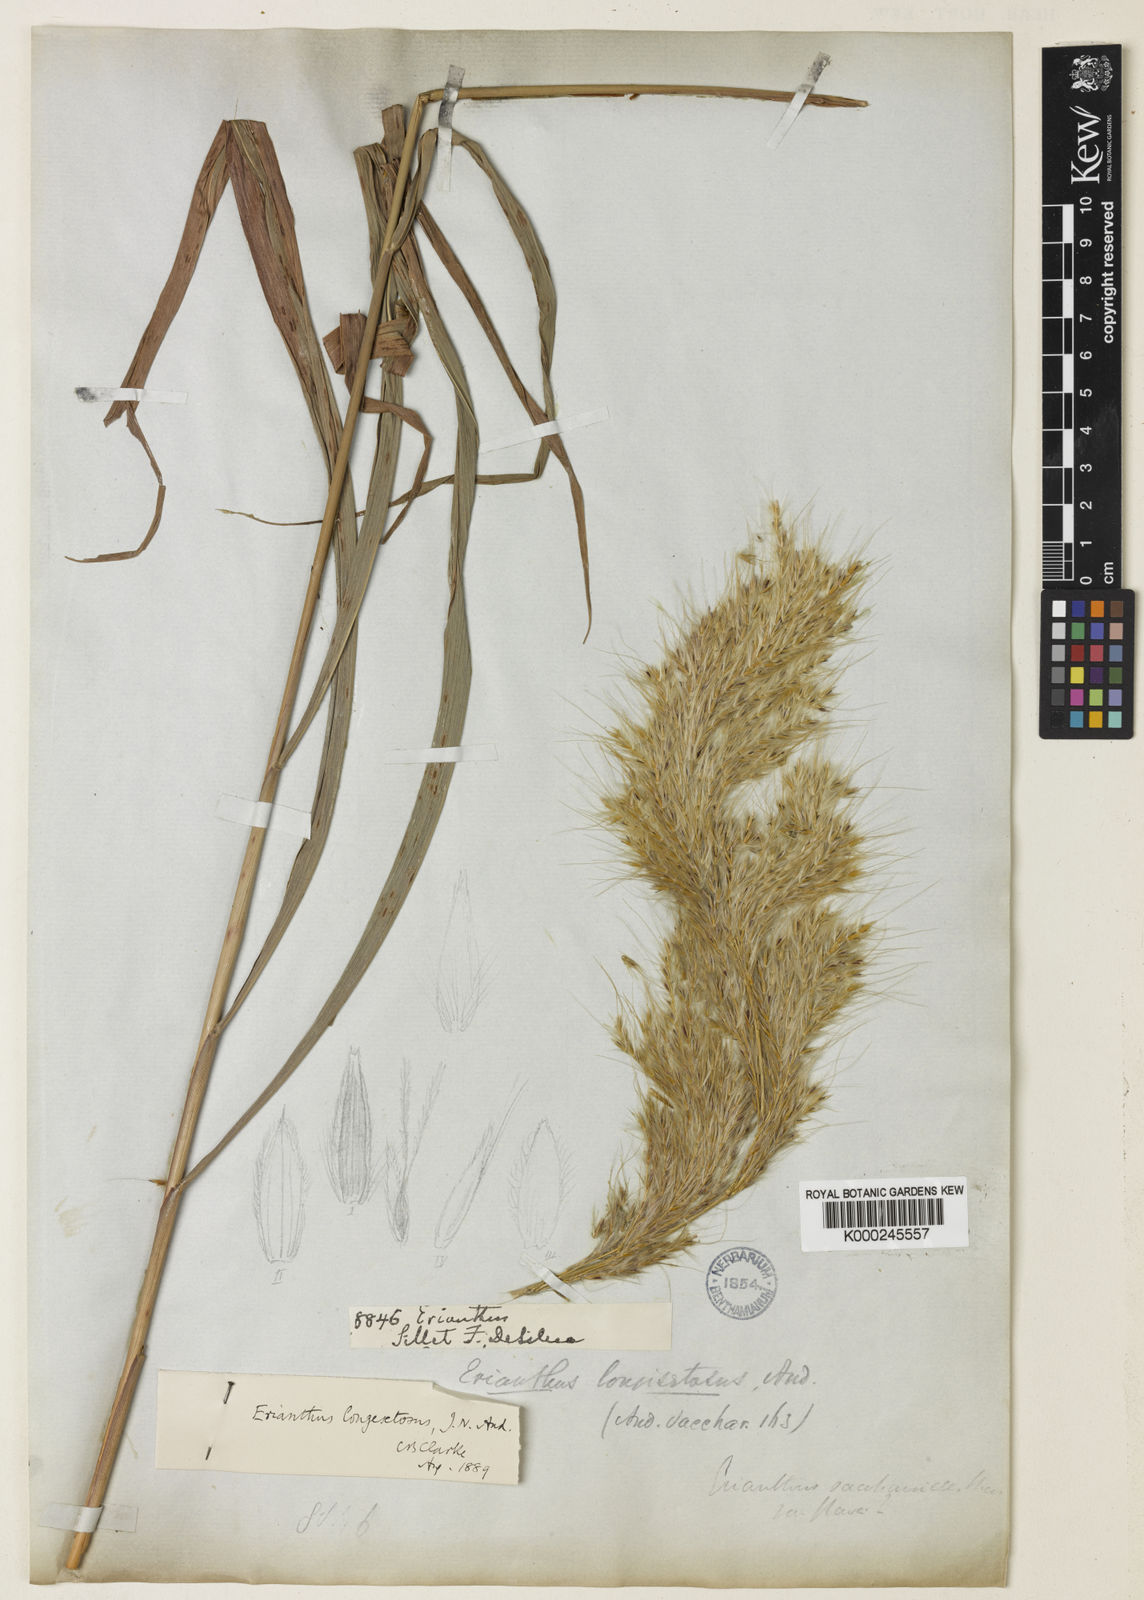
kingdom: Plantae
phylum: Tracheophyta
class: Liliopsida
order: Poales
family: Poaceae
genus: Saccharum
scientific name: Saccharum
